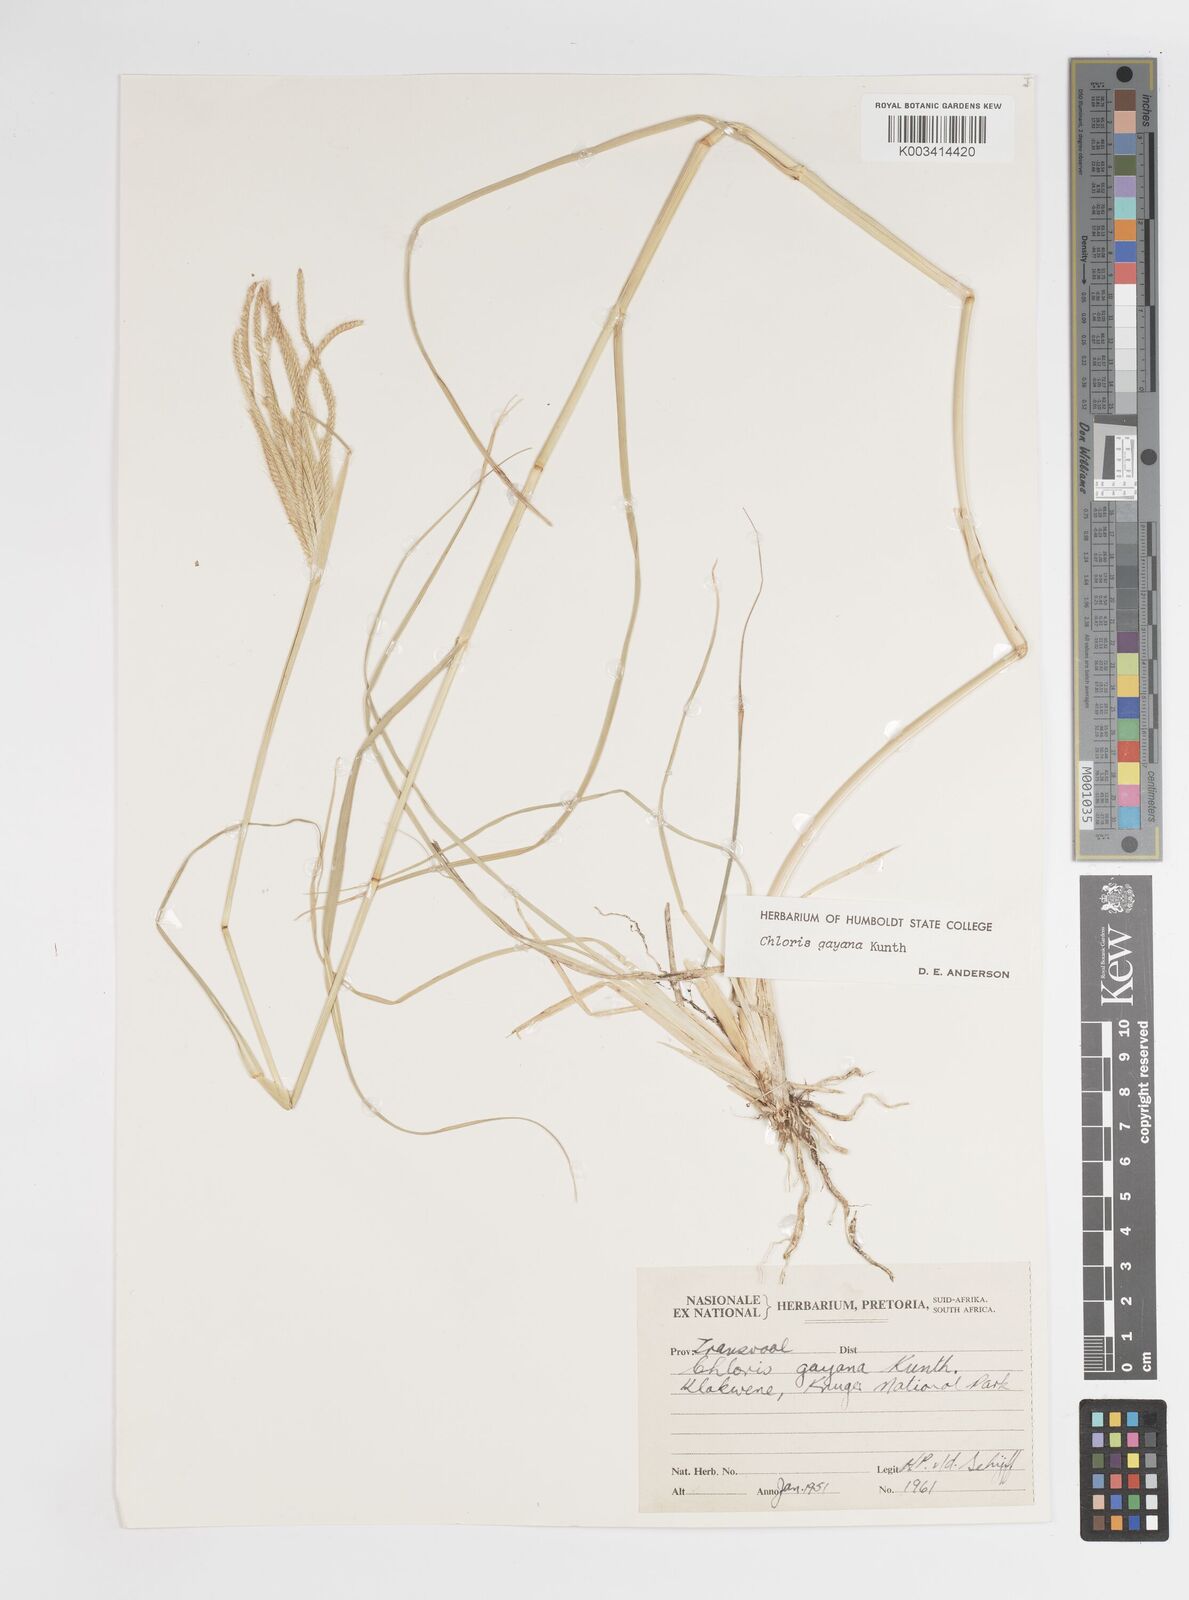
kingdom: Plantae
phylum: Tracheophyta
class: Liliopsida
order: Poales
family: Poaceae
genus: Chloris
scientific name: Chloris gayana
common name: Rhodes grass
